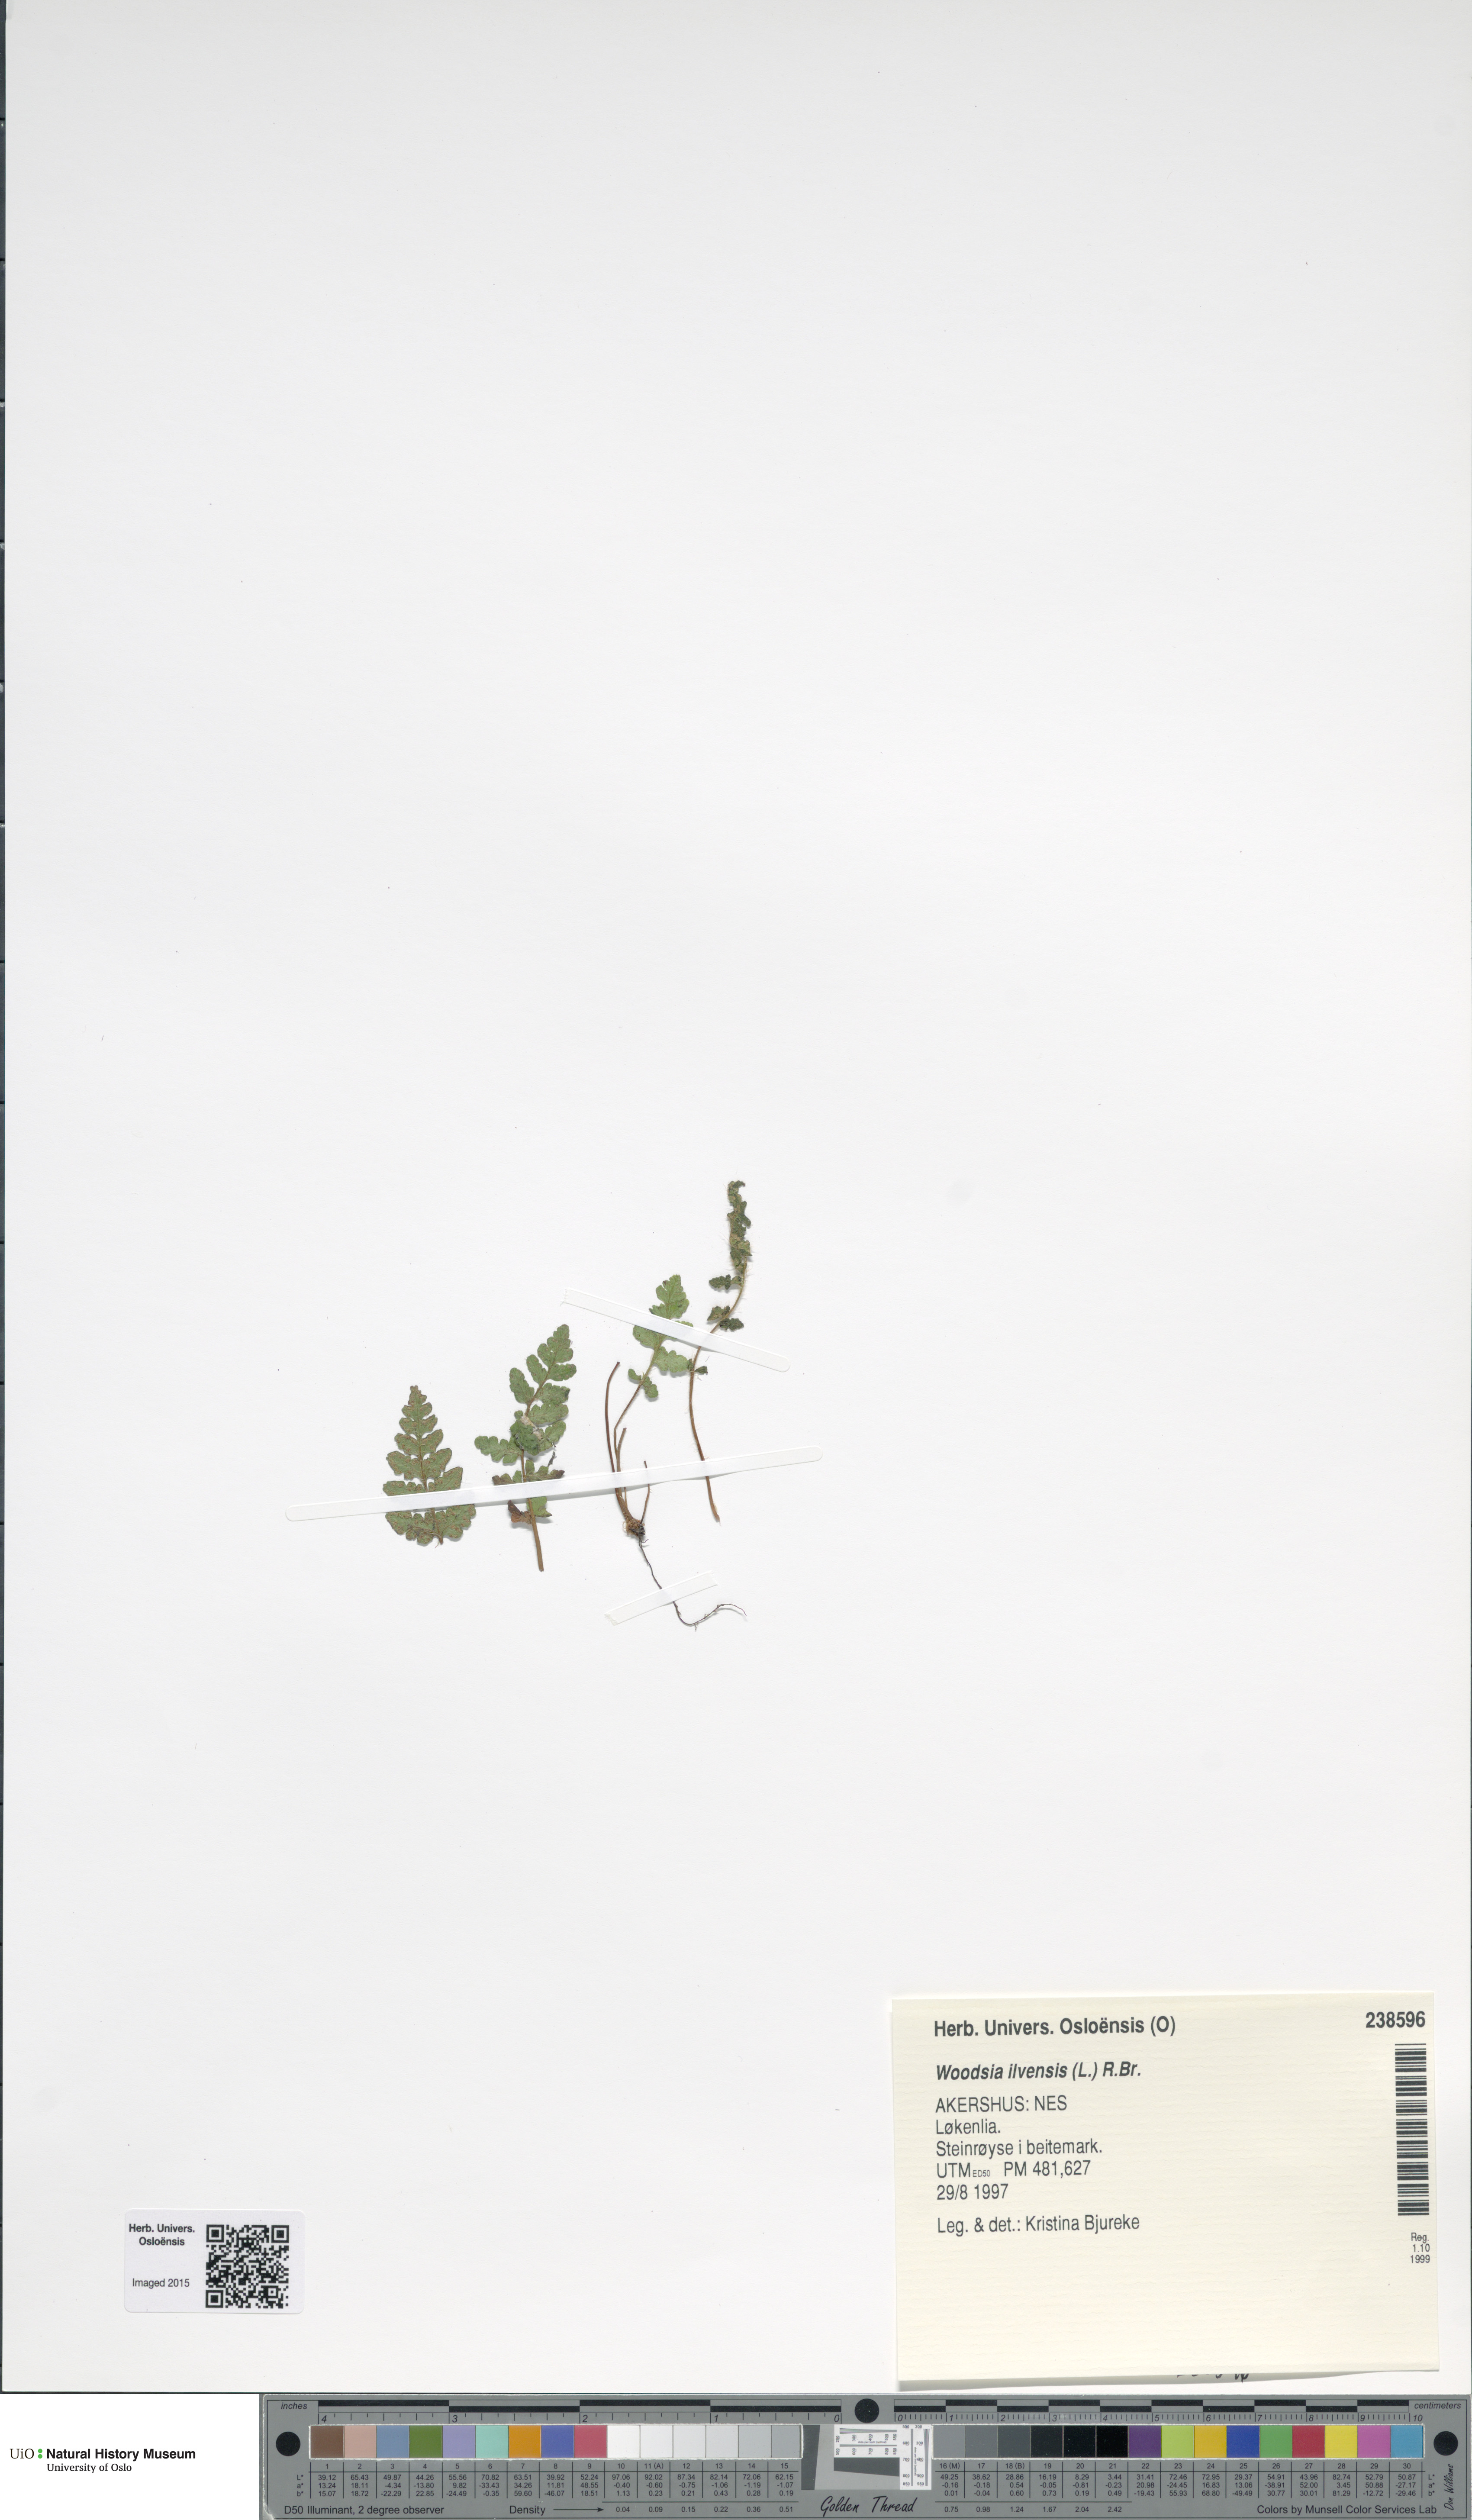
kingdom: Plantae
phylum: Tracheophyta
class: Polypodiopsida
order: Polypodiales
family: Woodsiaceae
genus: Woodsia
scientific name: Woodsia ilvensis
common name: Fragrant woodsia
